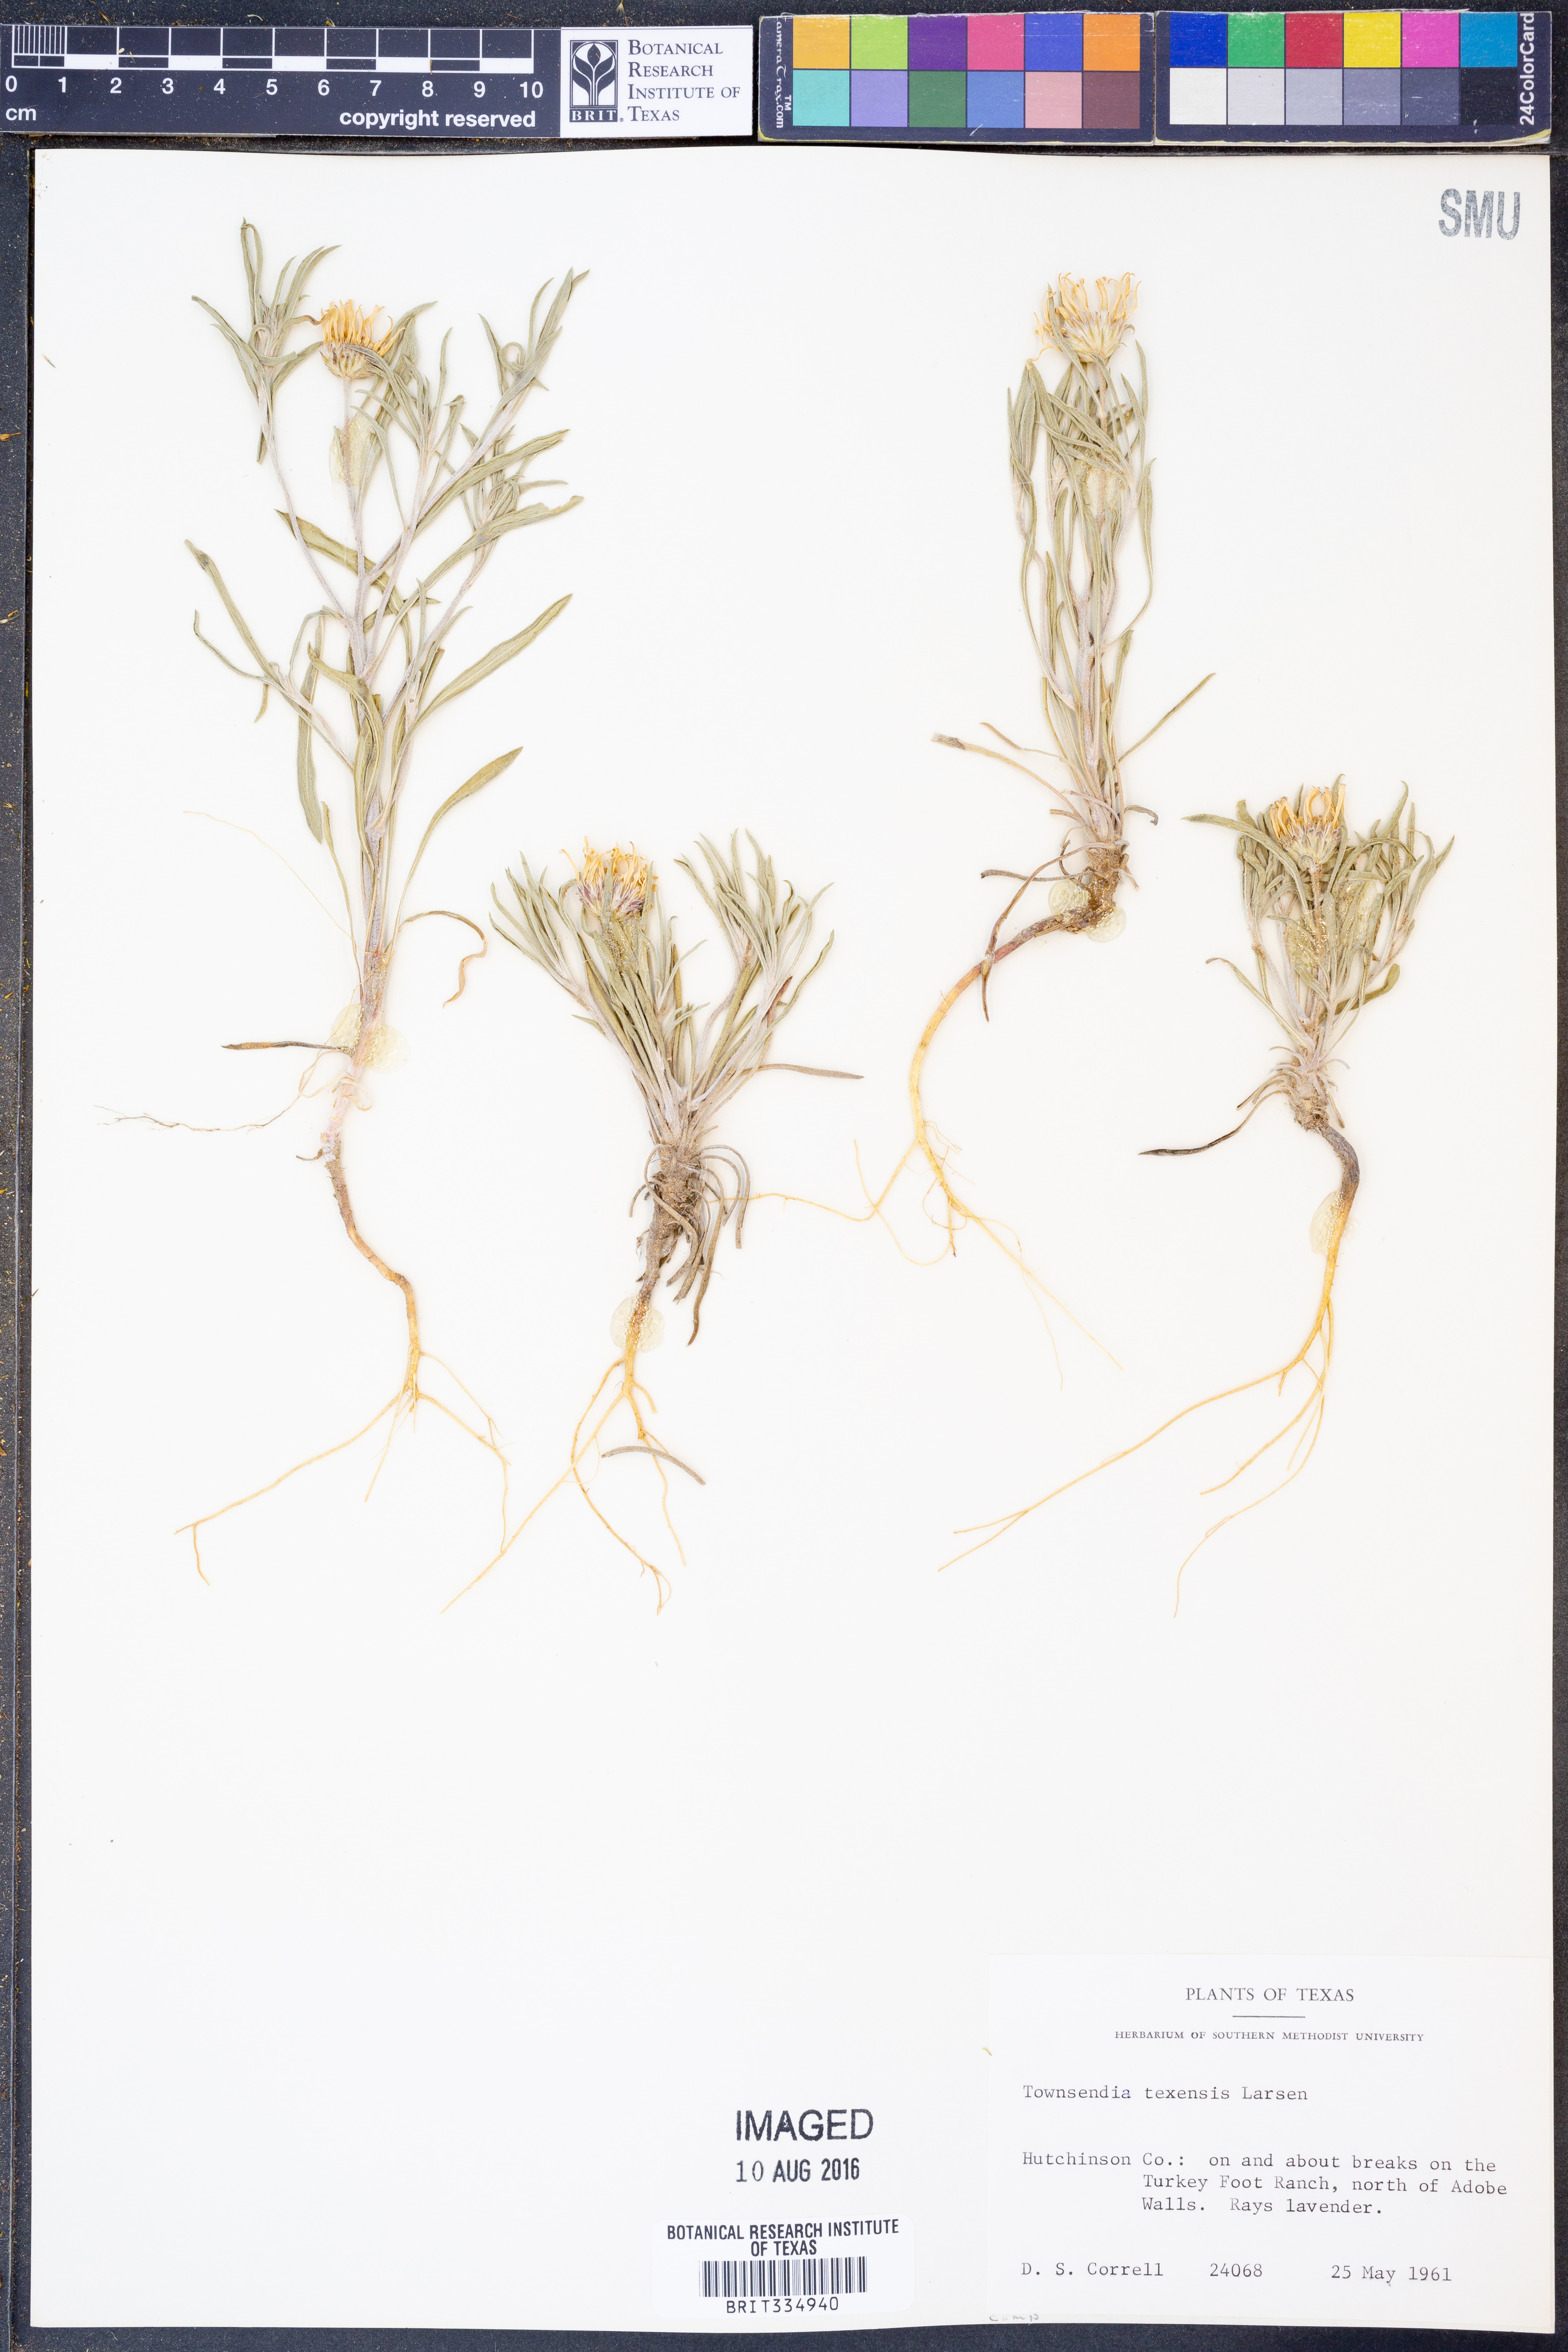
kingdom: Plantae
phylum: Tracheophyta
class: Magnoliopsida
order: Asterales
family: Asteraceae
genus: Townsendia
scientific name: Townsendia texensis
